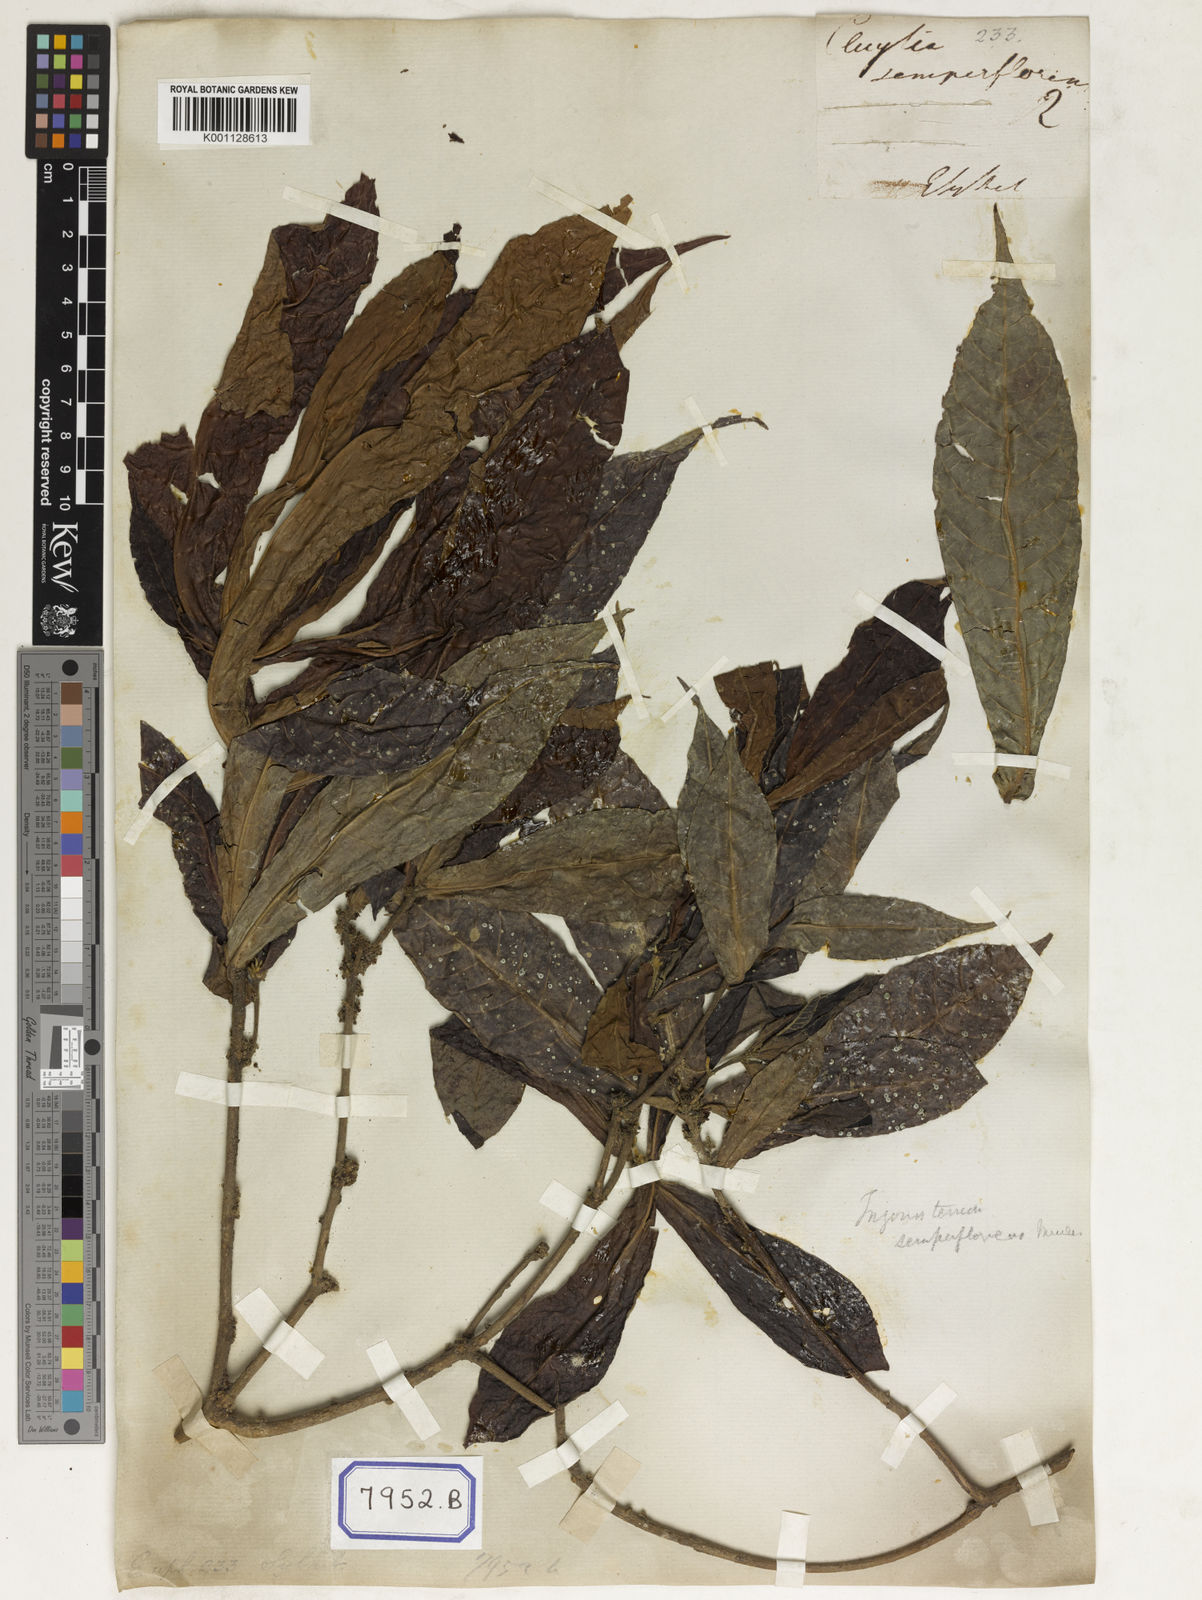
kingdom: Plantae
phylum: Tracheophyta
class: Magnoliopsida
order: Malpighiales
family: Euphorbiaceae
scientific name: Euphorbiaceae
